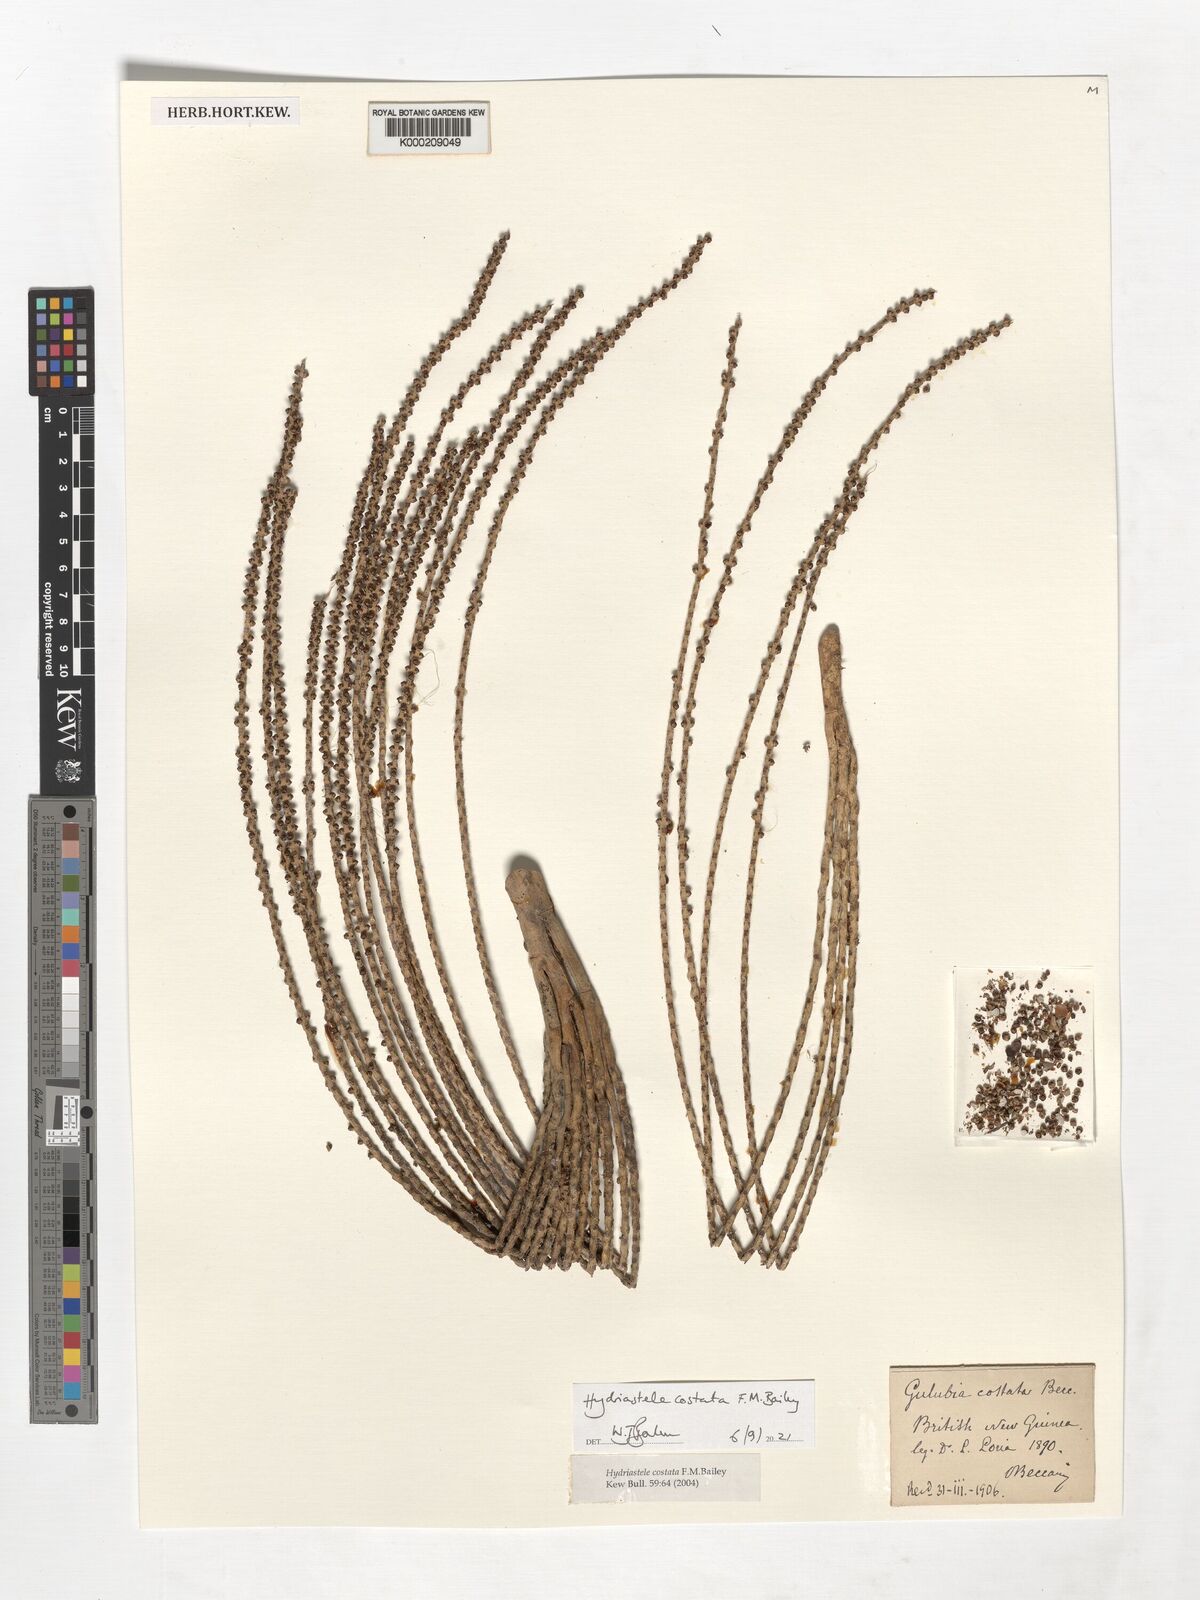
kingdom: Plantae
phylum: Tracheophyta
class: Liliopsida
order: Arecales
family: Arecaceae
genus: Hydriastele
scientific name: Hydriastele costata
